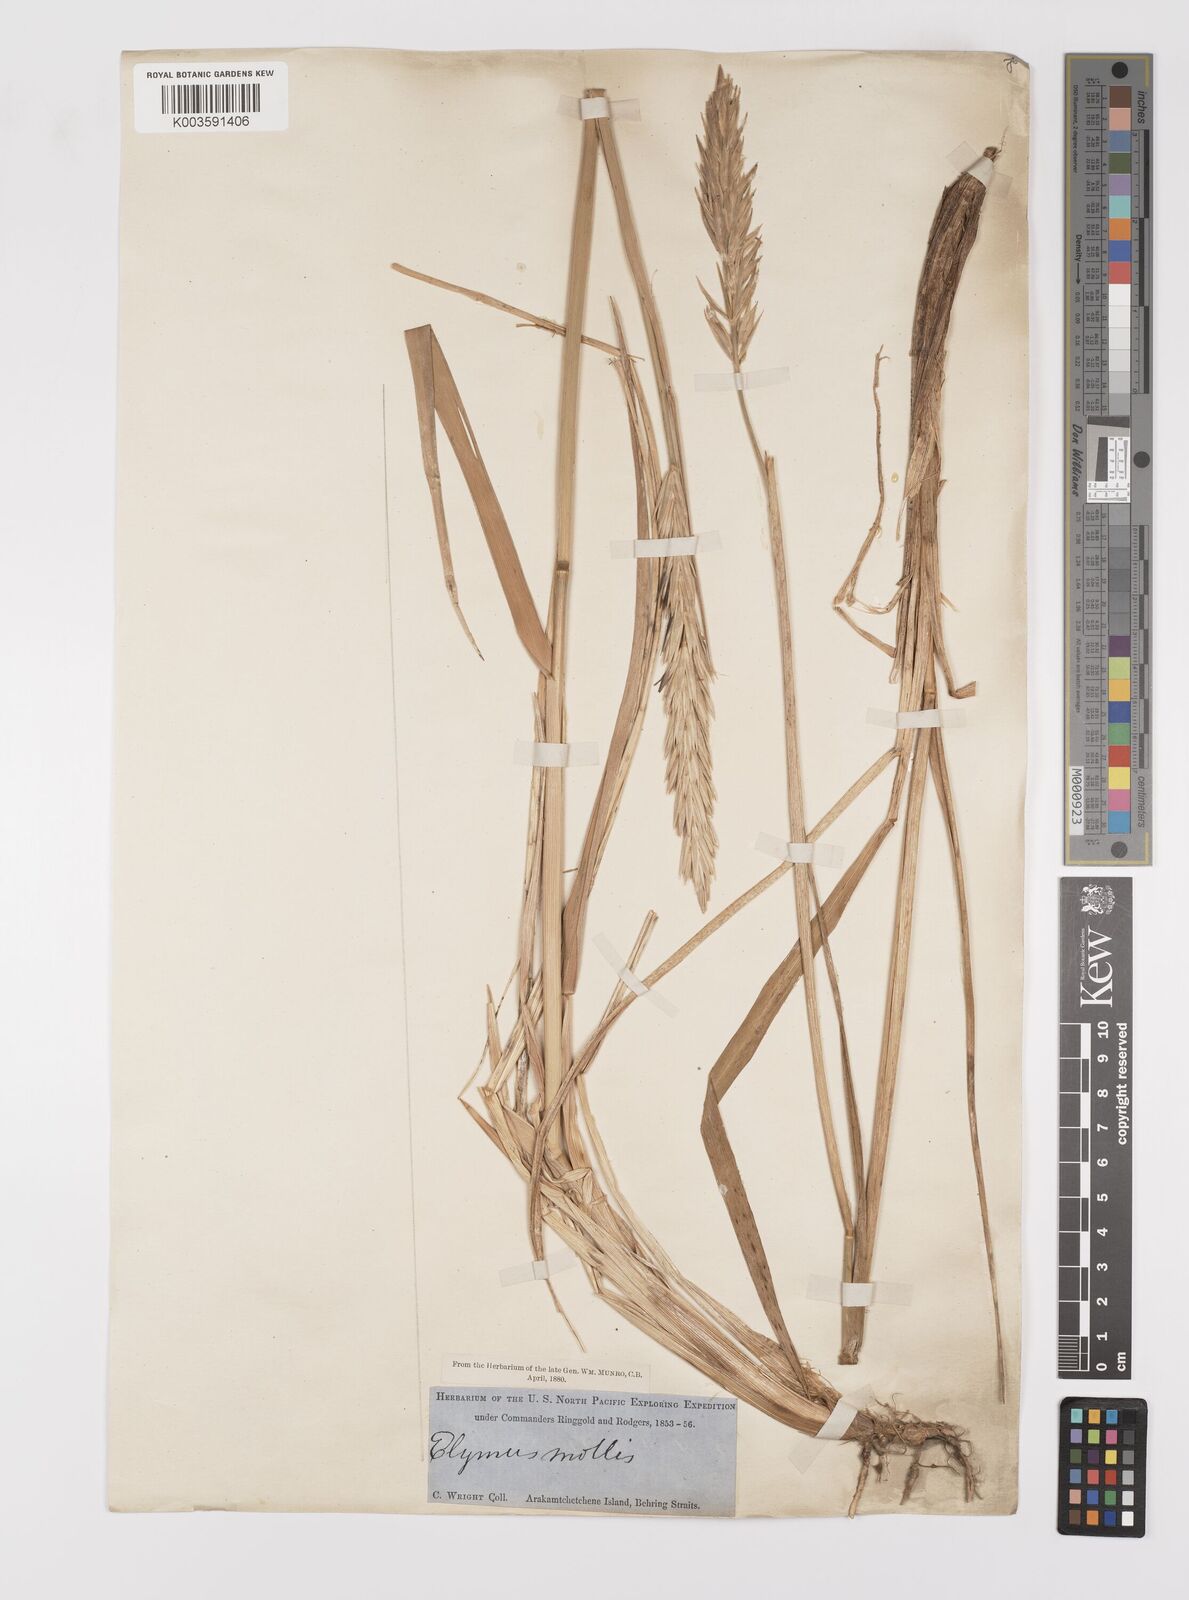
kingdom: Plantae
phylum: Tracheophyta
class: Liliopsida
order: Poales
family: Poaceae
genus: Leymus
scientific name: Leymus mollis
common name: American dune grass
